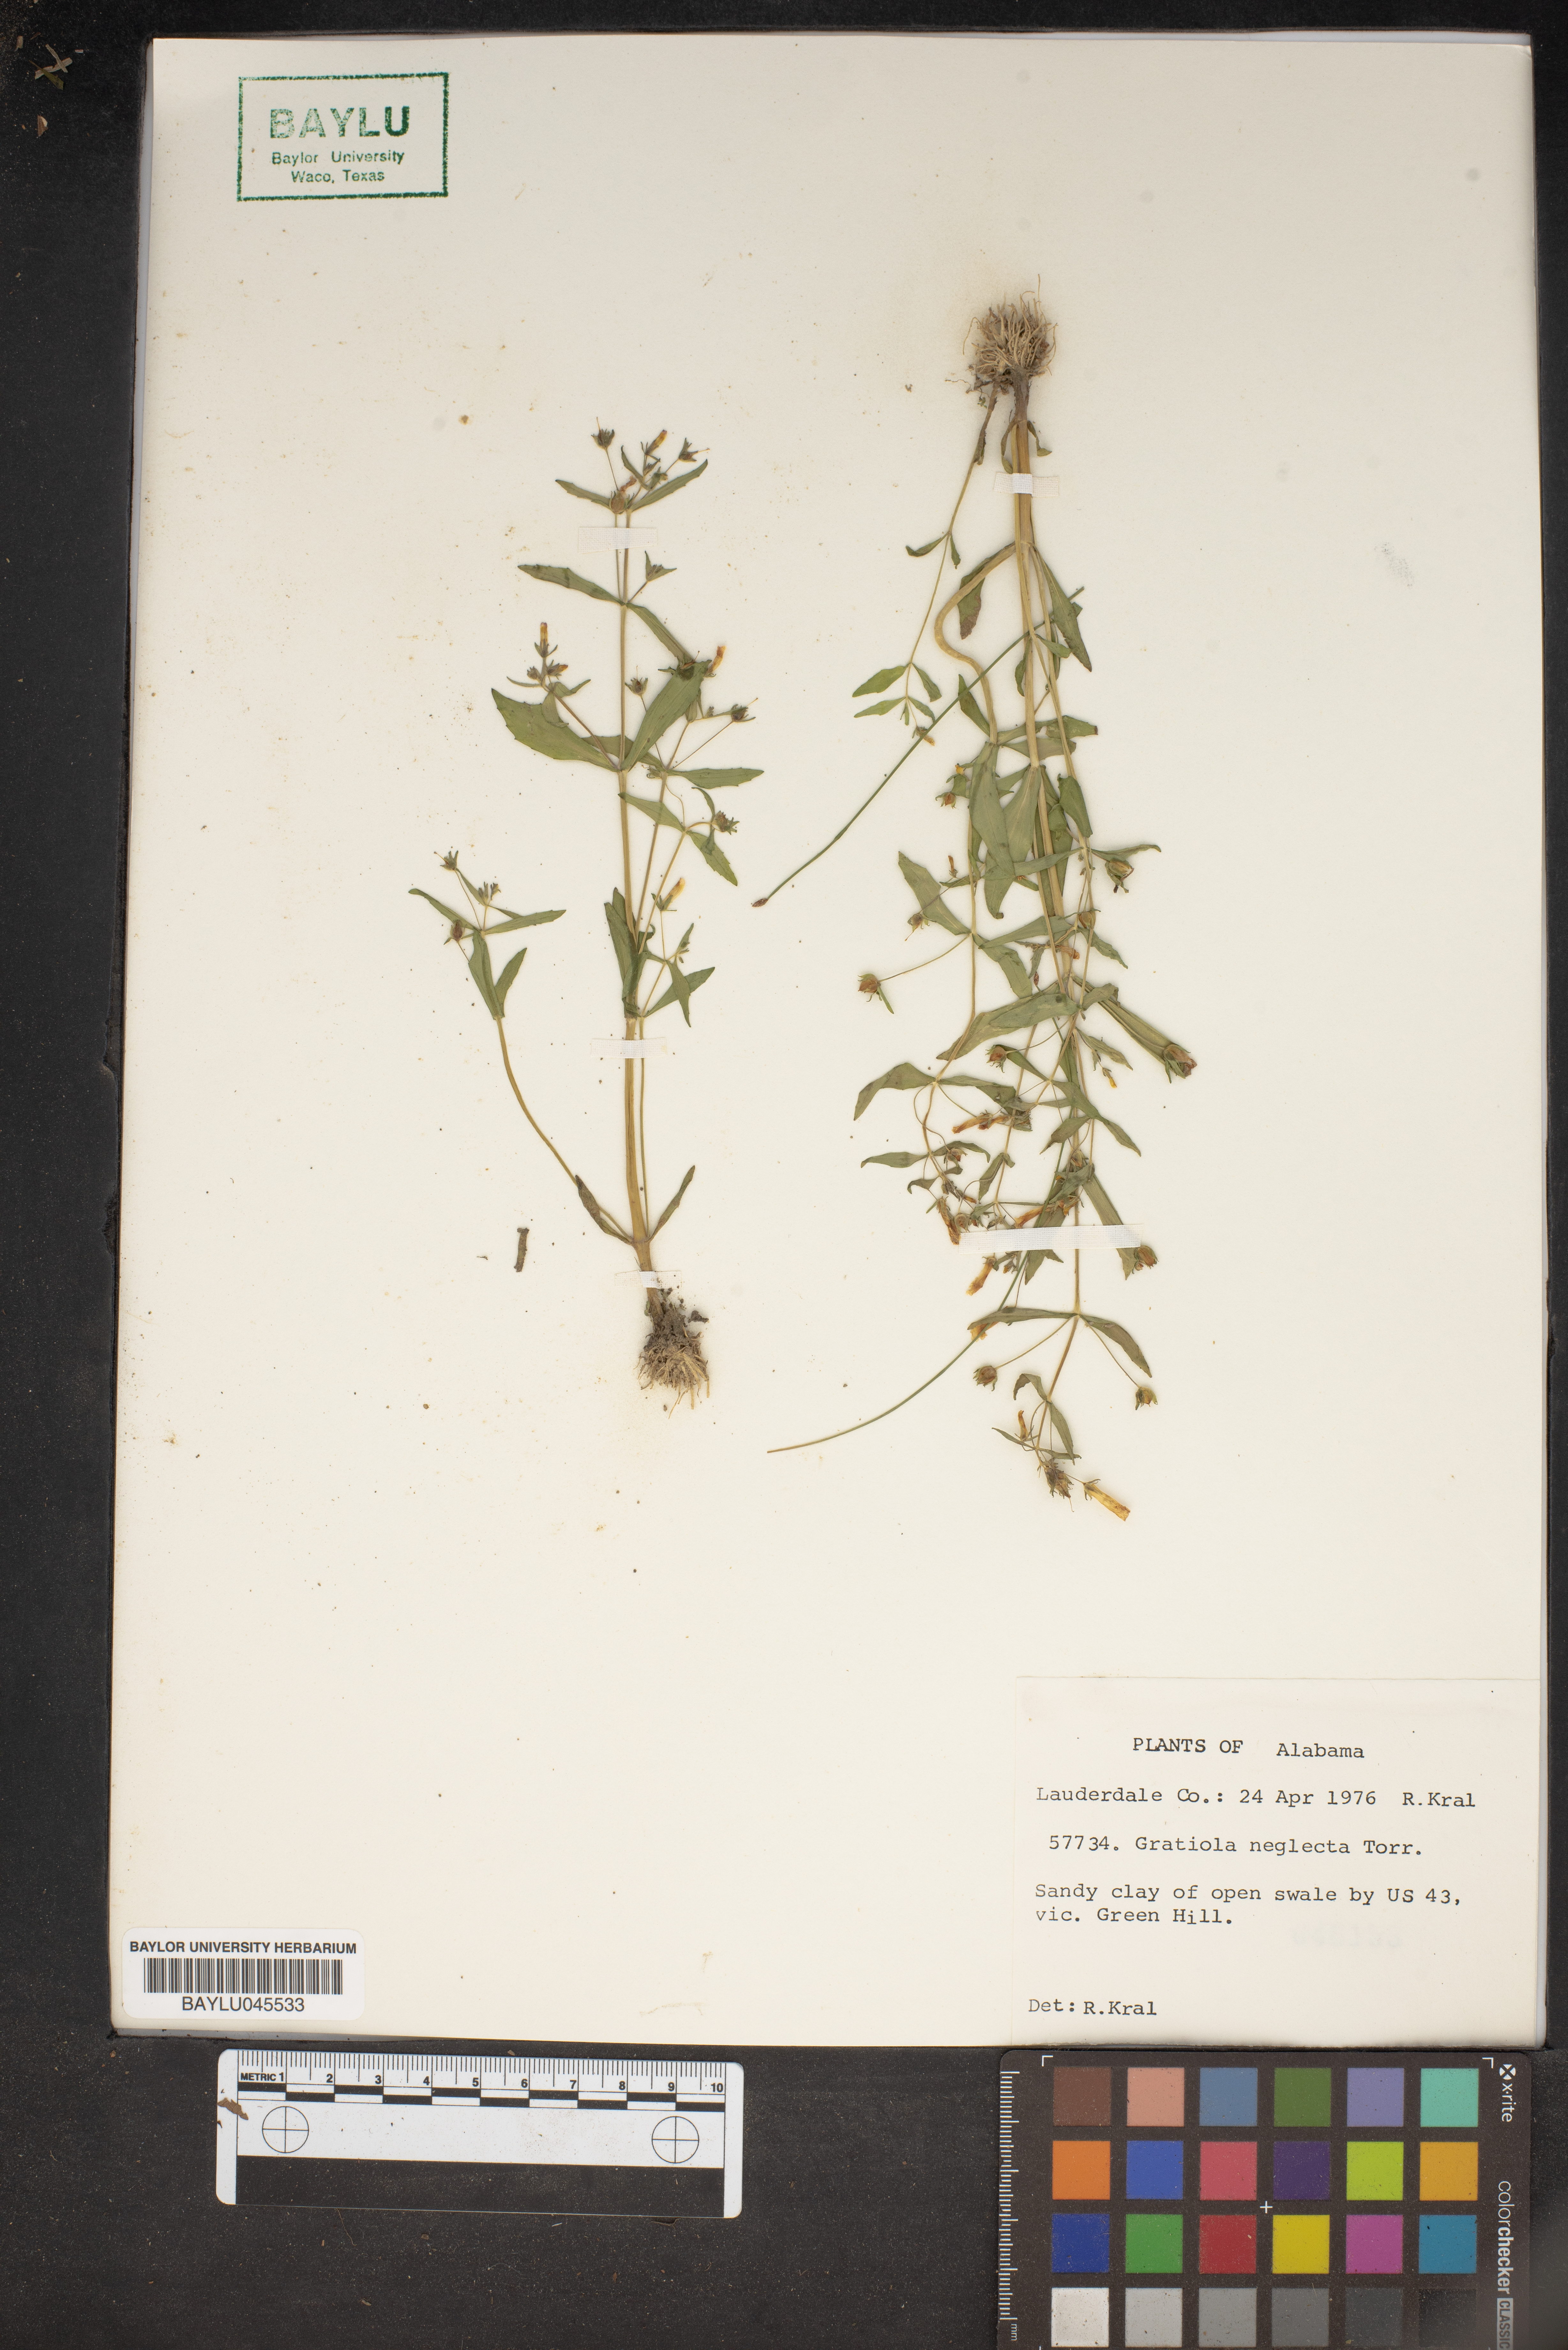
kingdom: Plantae
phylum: Tracheophyta
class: Magnoliopsida
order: Lamiales
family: Plantaginaceae
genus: Gratiola
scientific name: Gratiola neglecta
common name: American hedge-hyssop
